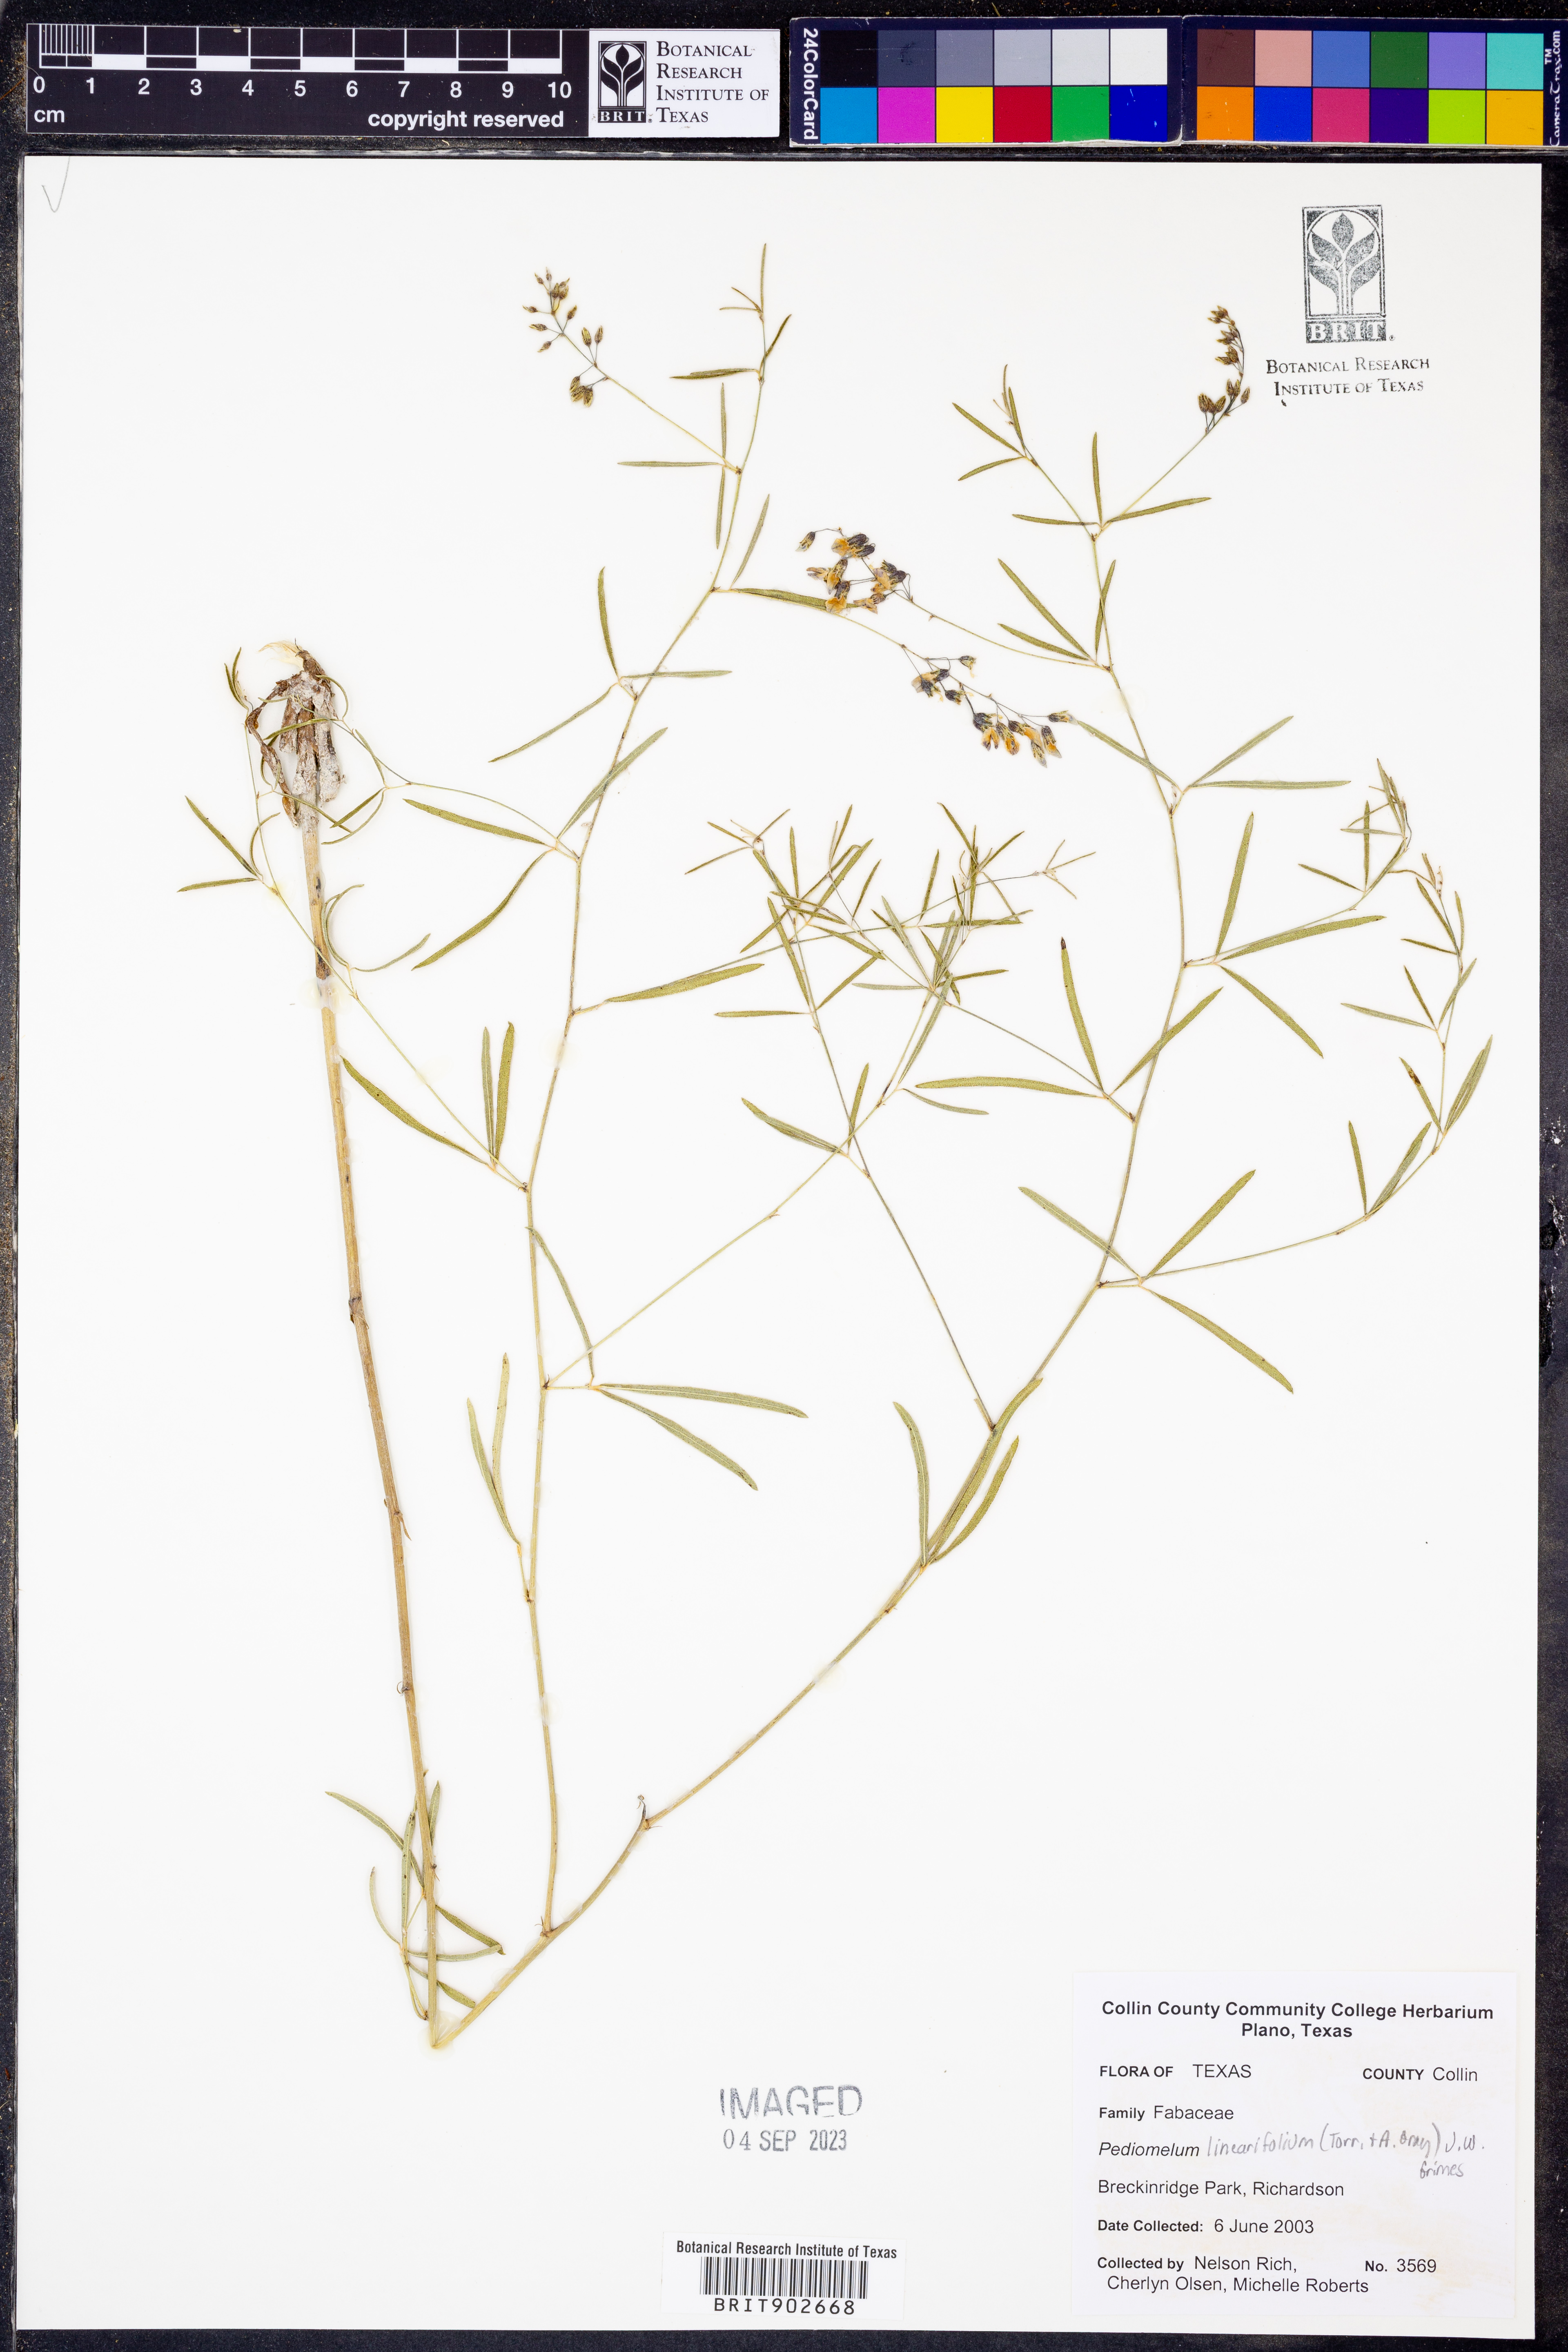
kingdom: Plantae
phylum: Tracheophyta
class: Magnoliopsida
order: Fabales
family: Fabaceae
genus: Pediomelum
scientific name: Pediomelum linearifolium
